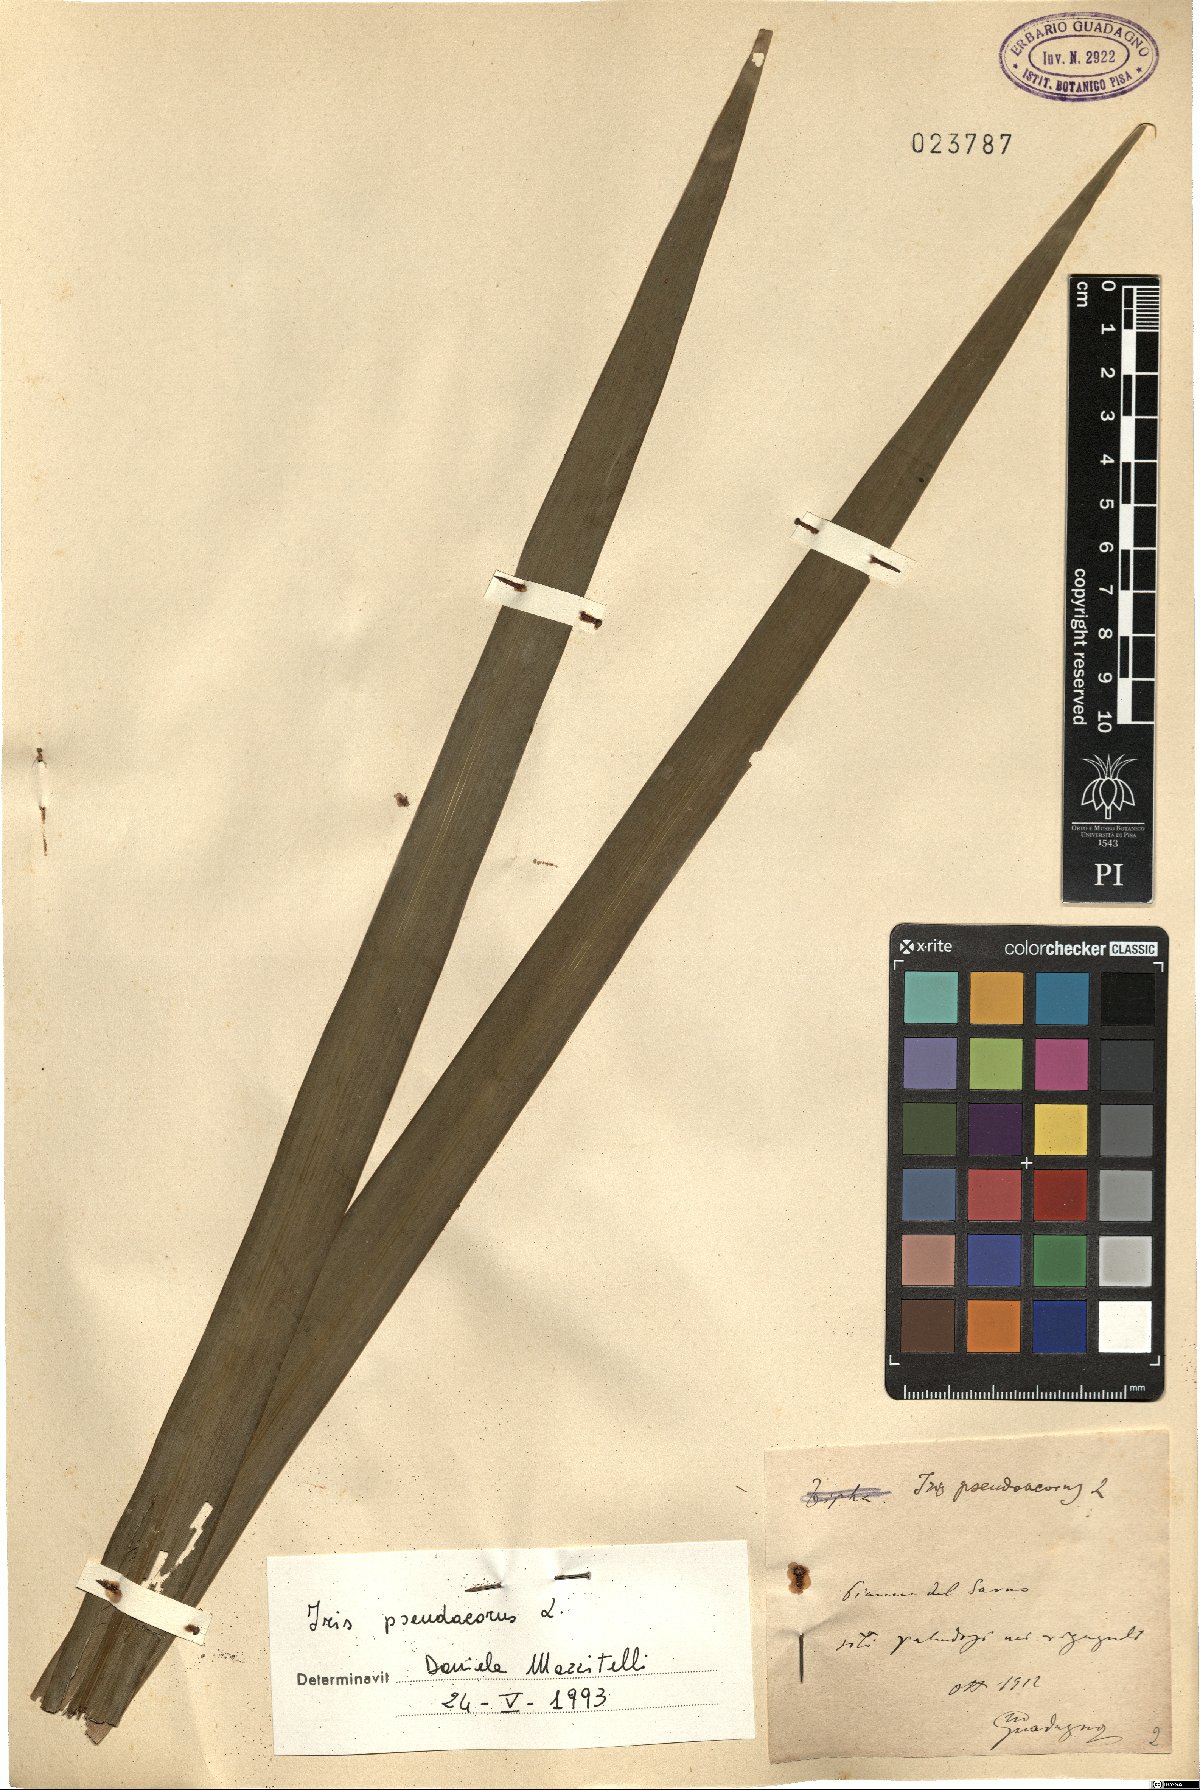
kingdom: Plantae
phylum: Tracheophyta
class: Liliopsida
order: Asparagales
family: Iridaceae
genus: Iris
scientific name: Iris pseudacorus
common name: Yellow flag
